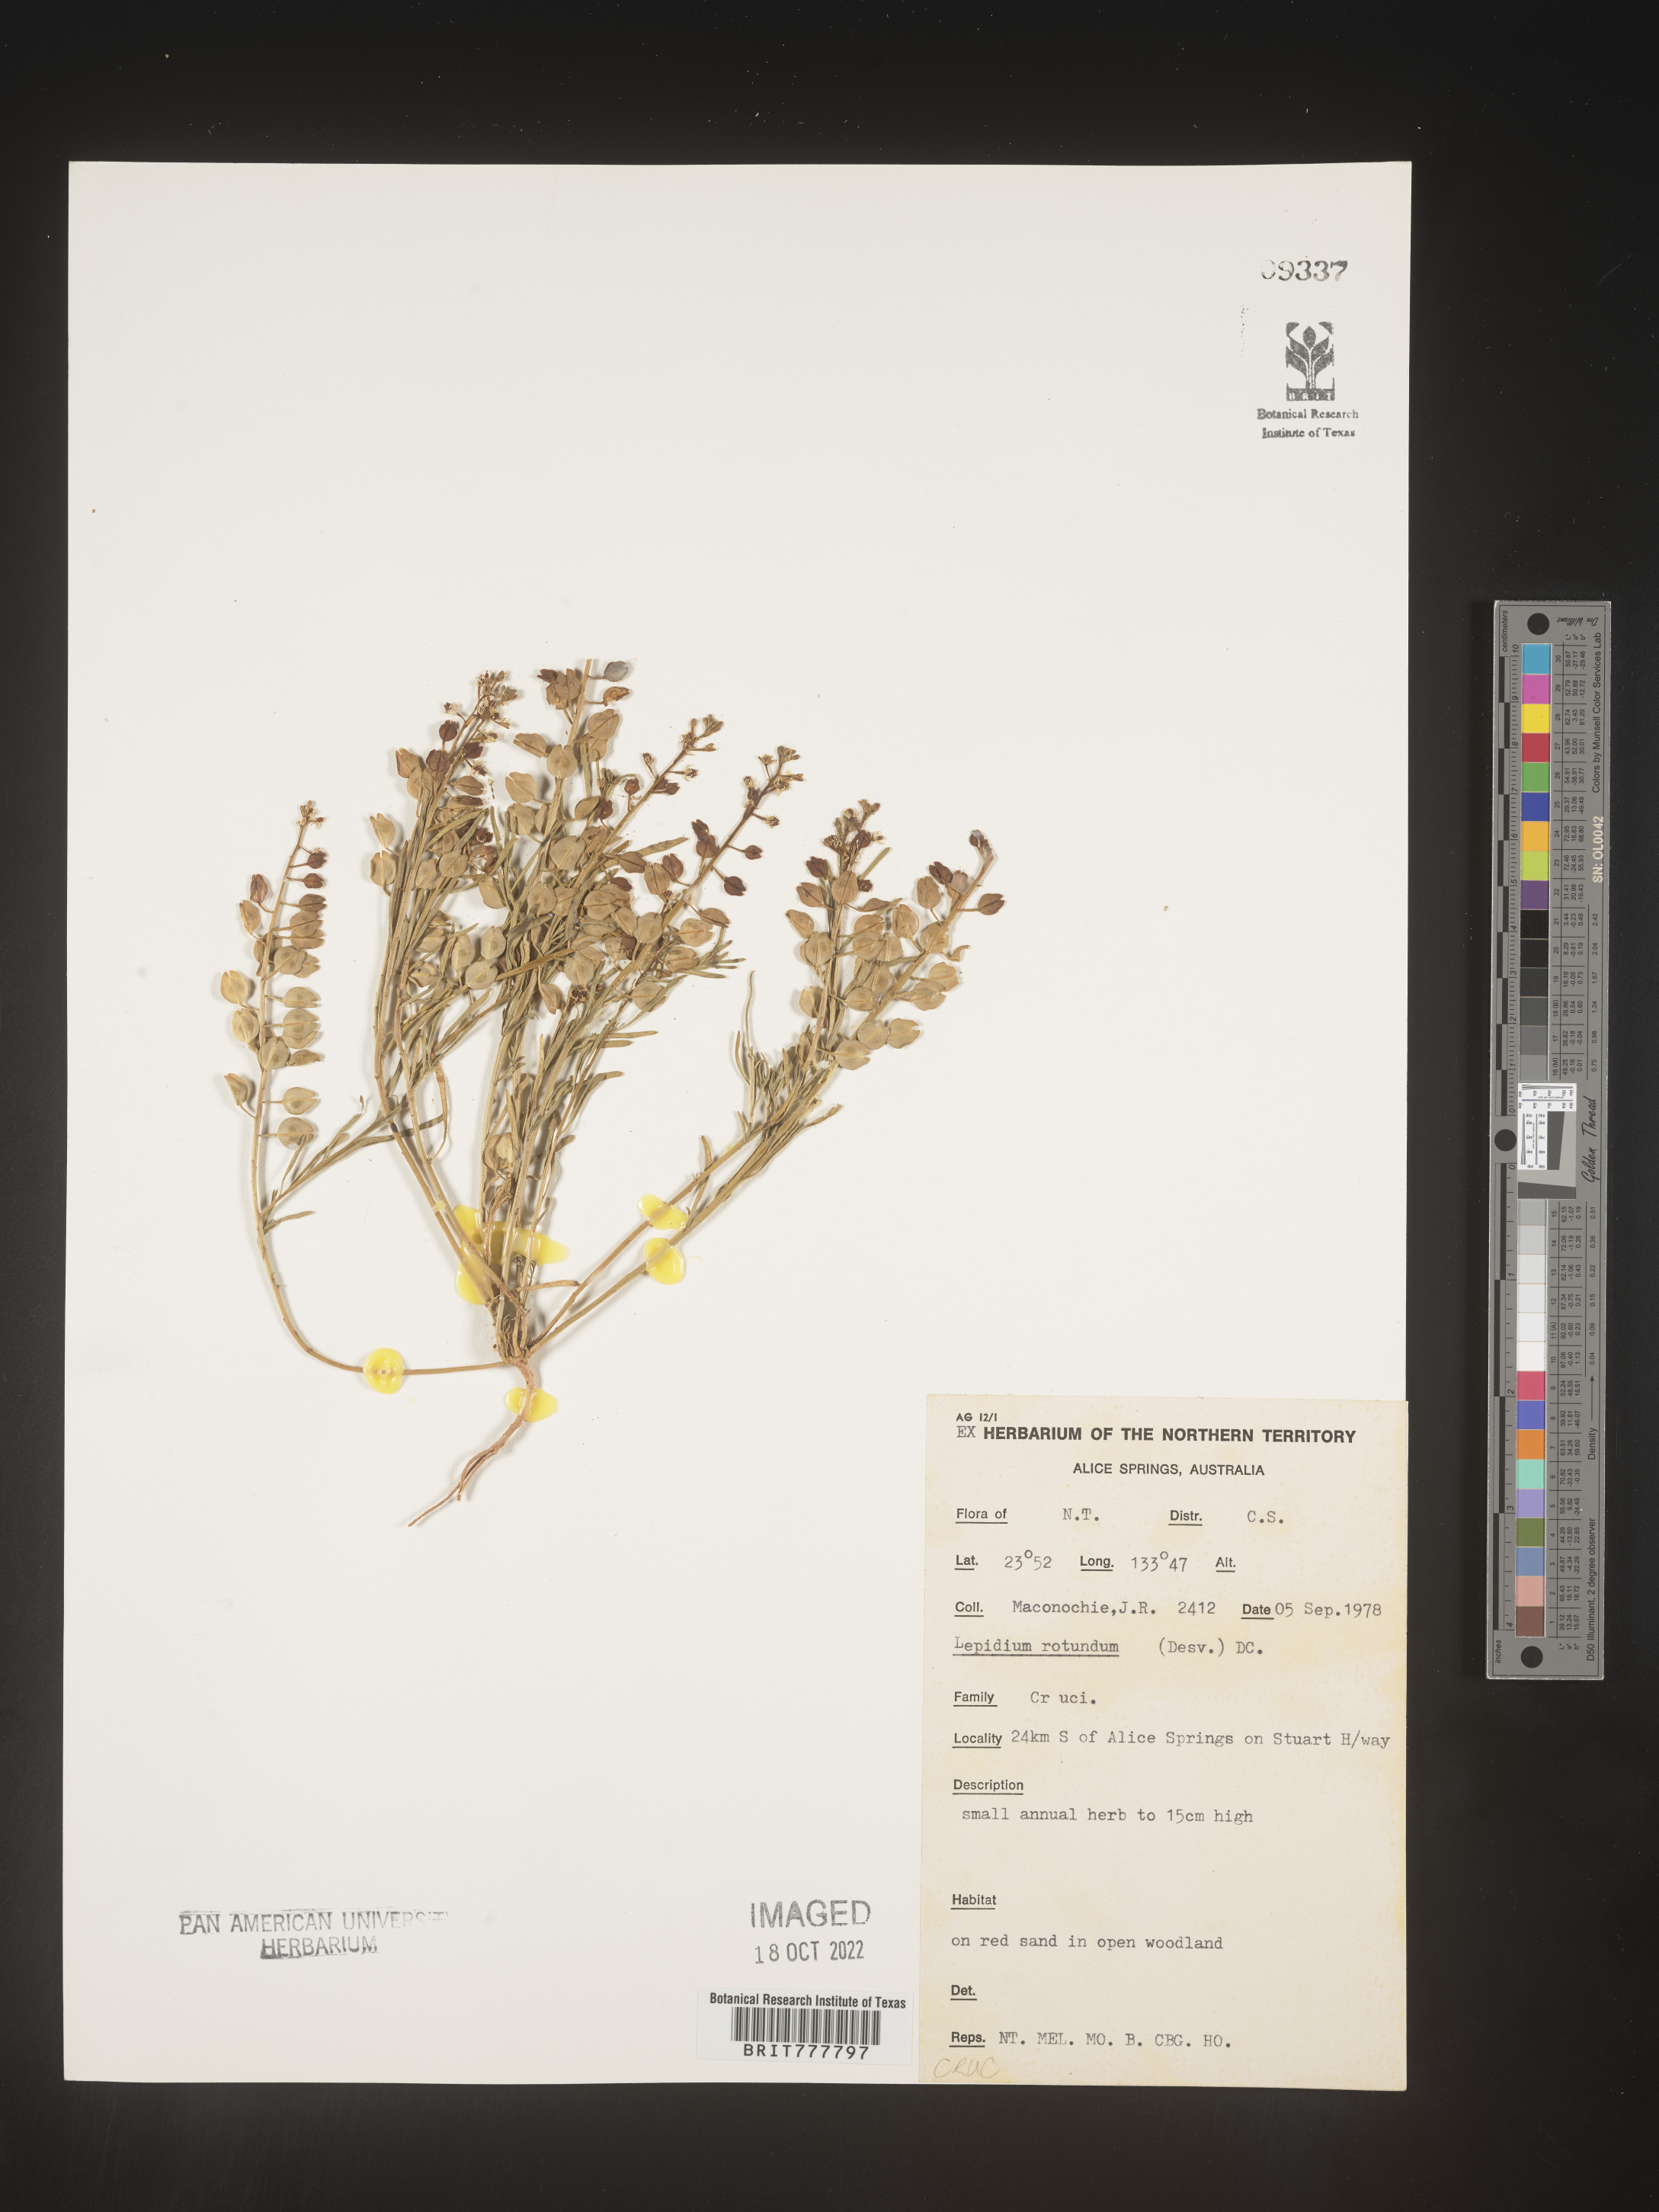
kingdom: Plantae
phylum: Tracheophyta
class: Magnoliopsida
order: Brassicales
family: Brassicaceae
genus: Lepidium
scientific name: Lepidium
